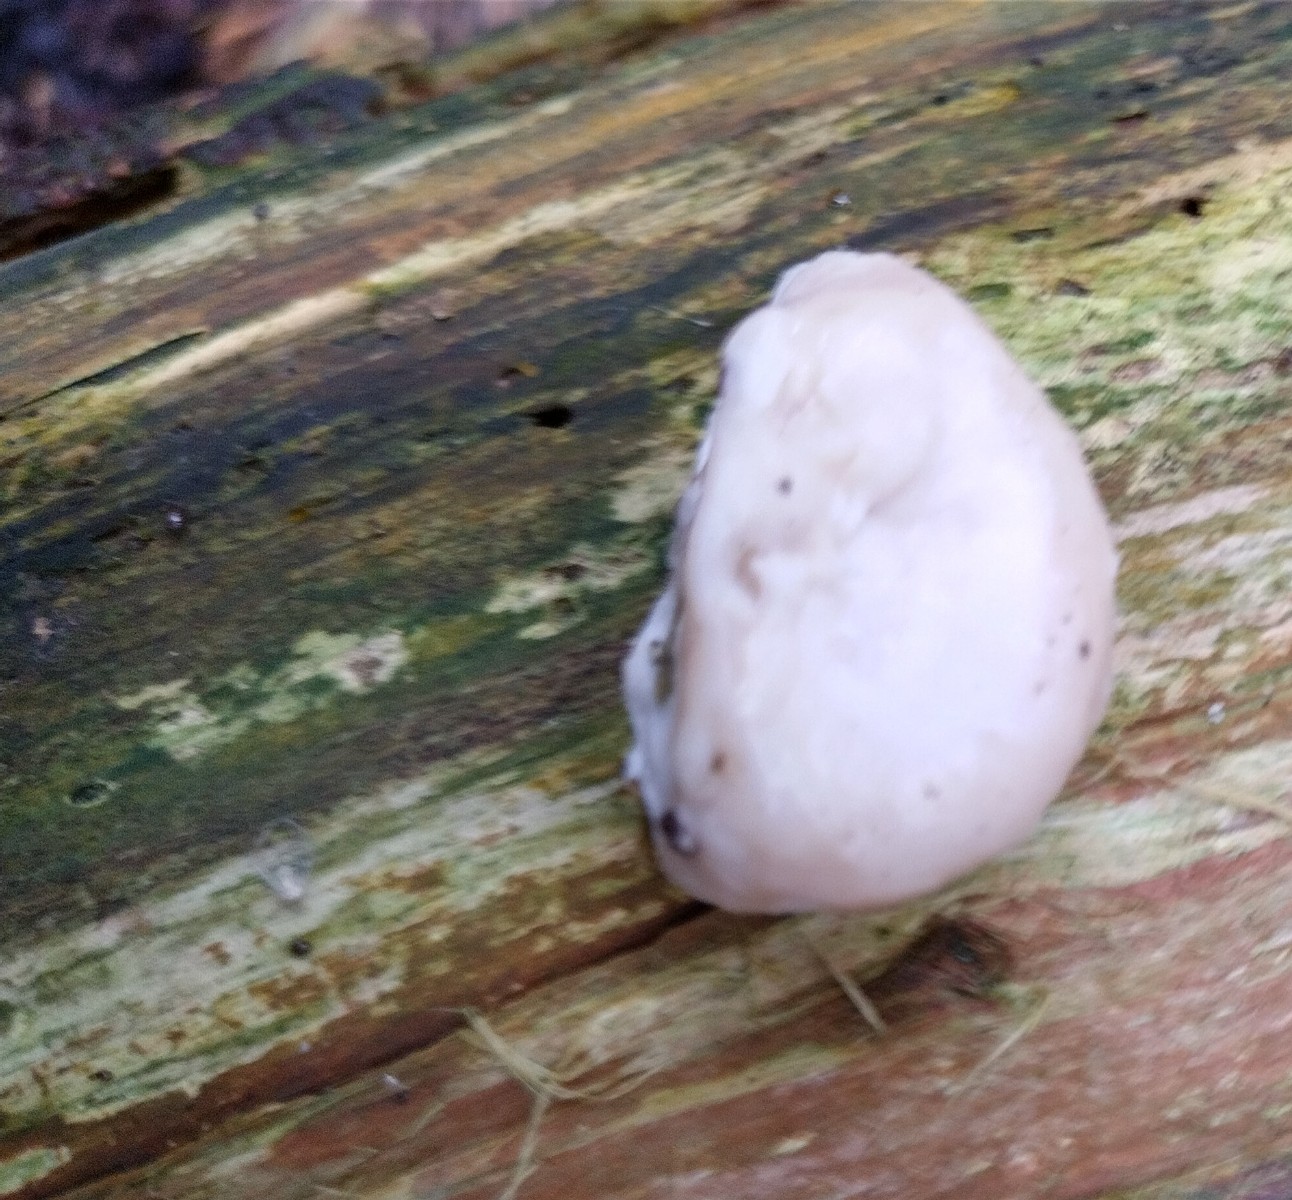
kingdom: Fungi
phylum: Basidiomycota
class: Agaricomycetes
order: Polyporales
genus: Amaropostia
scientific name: Amaropostia stiptica
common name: bitter kødporesvamp
